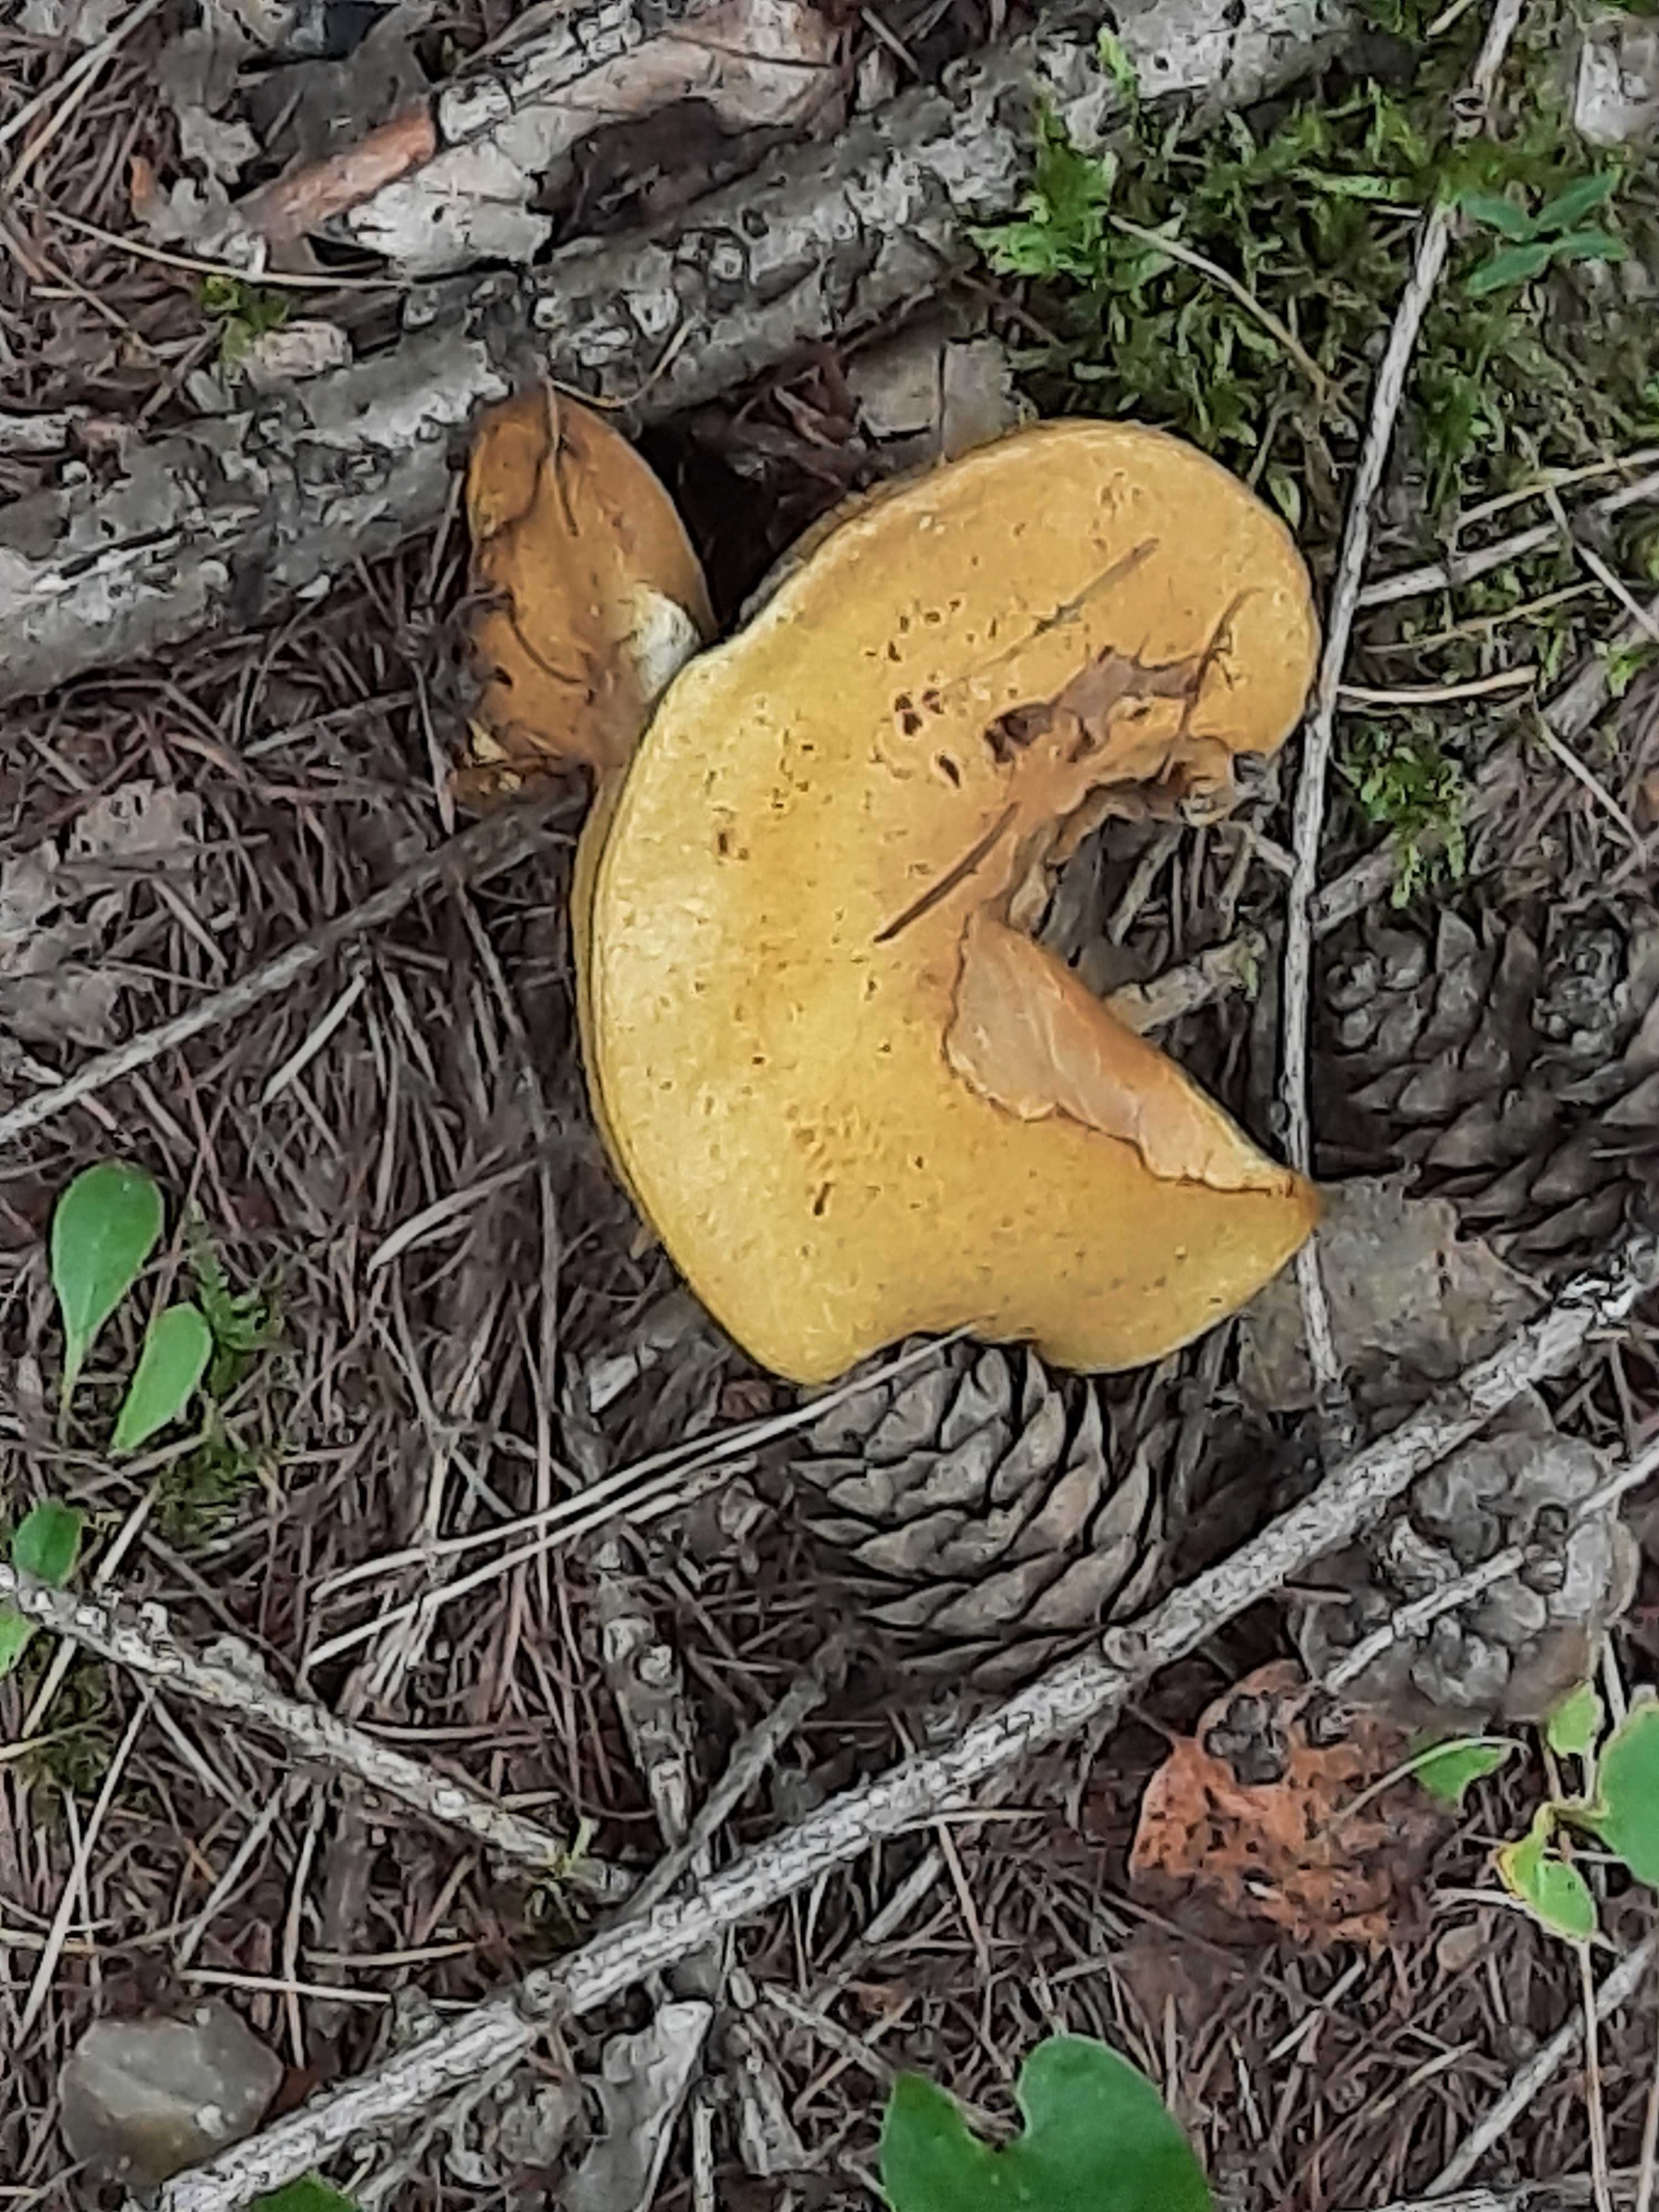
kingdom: Fungi
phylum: Basidiomycota
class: Agaricomycetes
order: Boletales
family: Suillaceae
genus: Suillus
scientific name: Suillus grevillei
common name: lærke-slimrørhat
